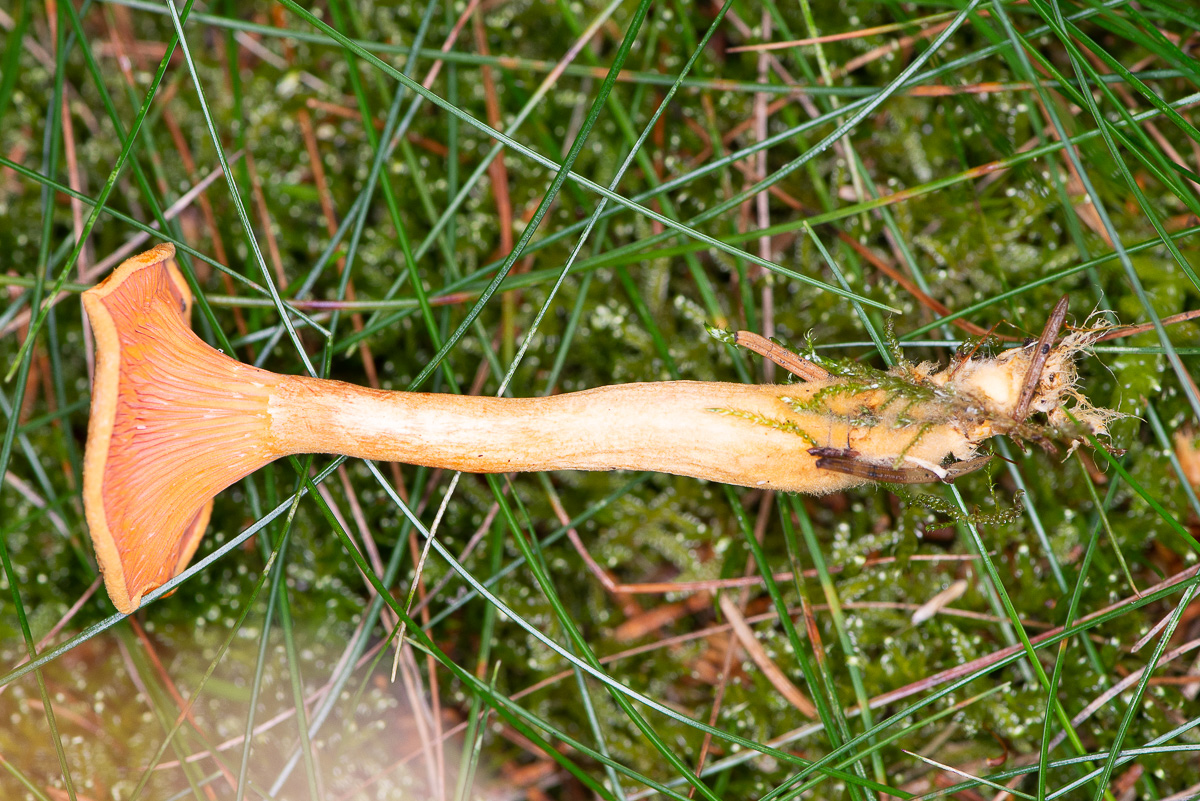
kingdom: Fungi
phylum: Basidiomycota
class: Agaricomycetes
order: Boletales
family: Hygrophoropsidaceae
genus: Hygrophoropsis
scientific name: Hygrophoropsis aurantiaca
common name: almindelig orangekantarel
